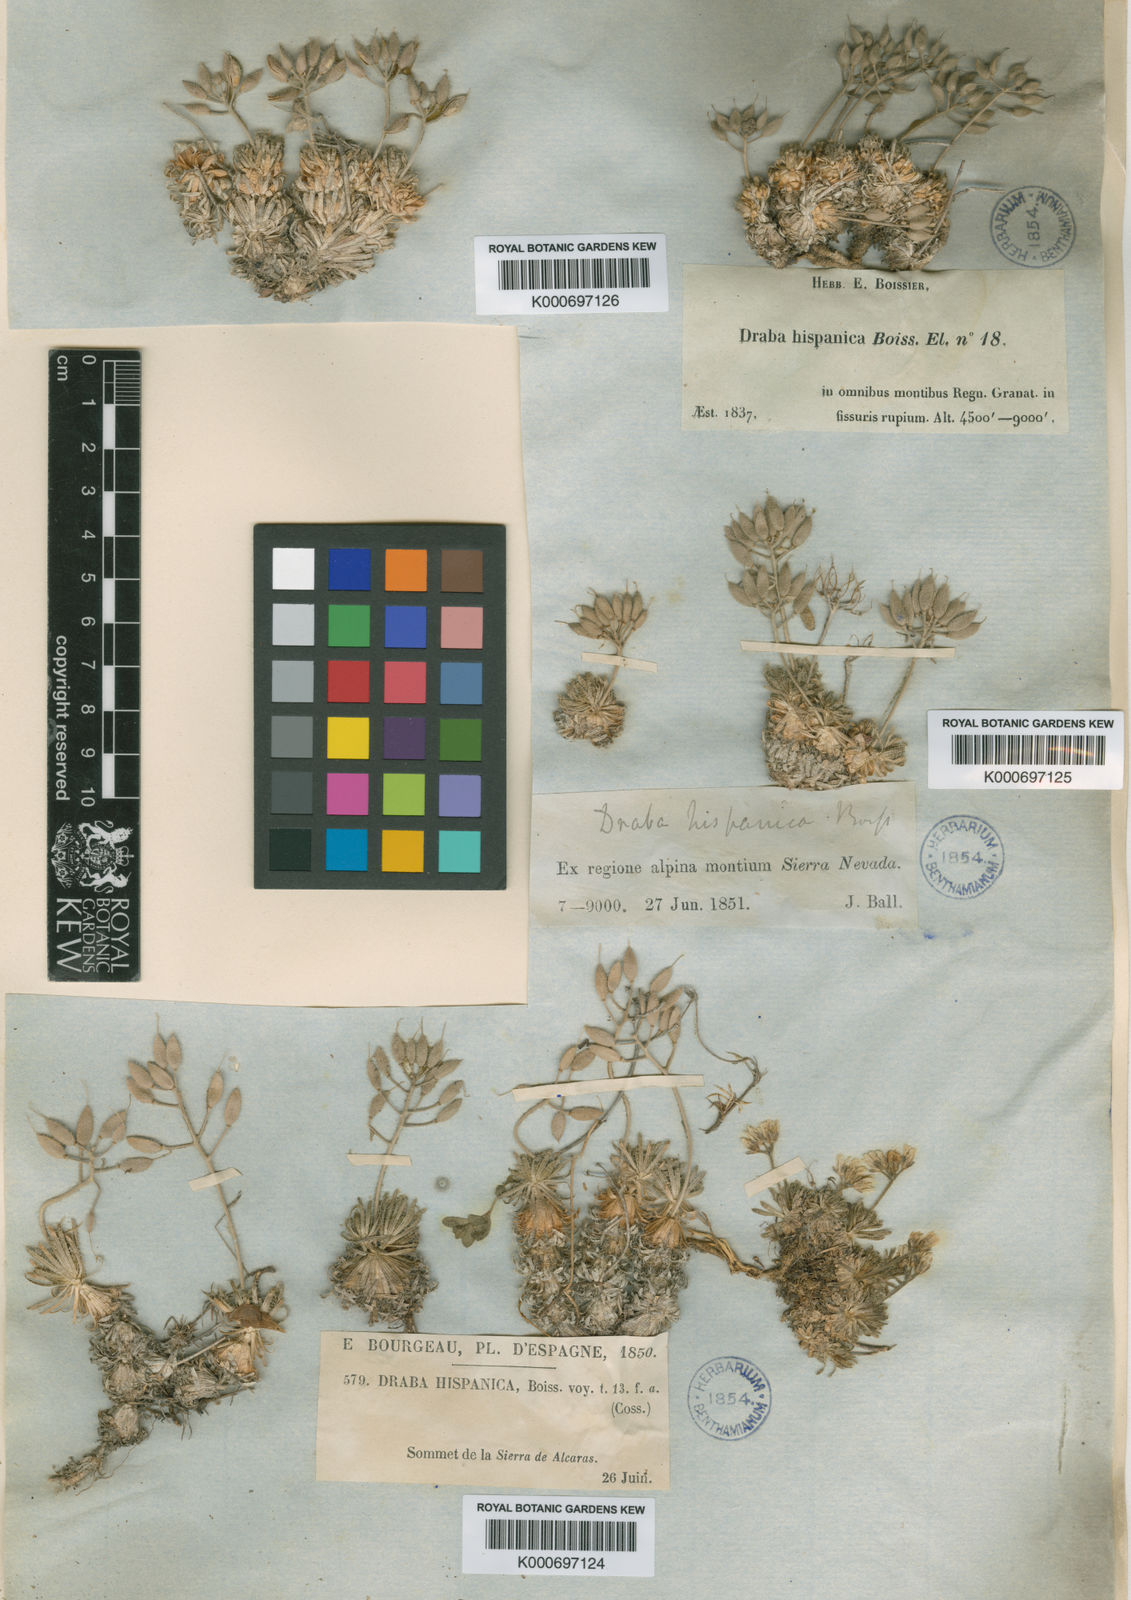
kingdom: Plantae
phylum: Tracheophyta
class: Magnoliopsida
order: Brassicales
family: Brassicaceae
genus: Draba
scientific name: Draba hispanica
